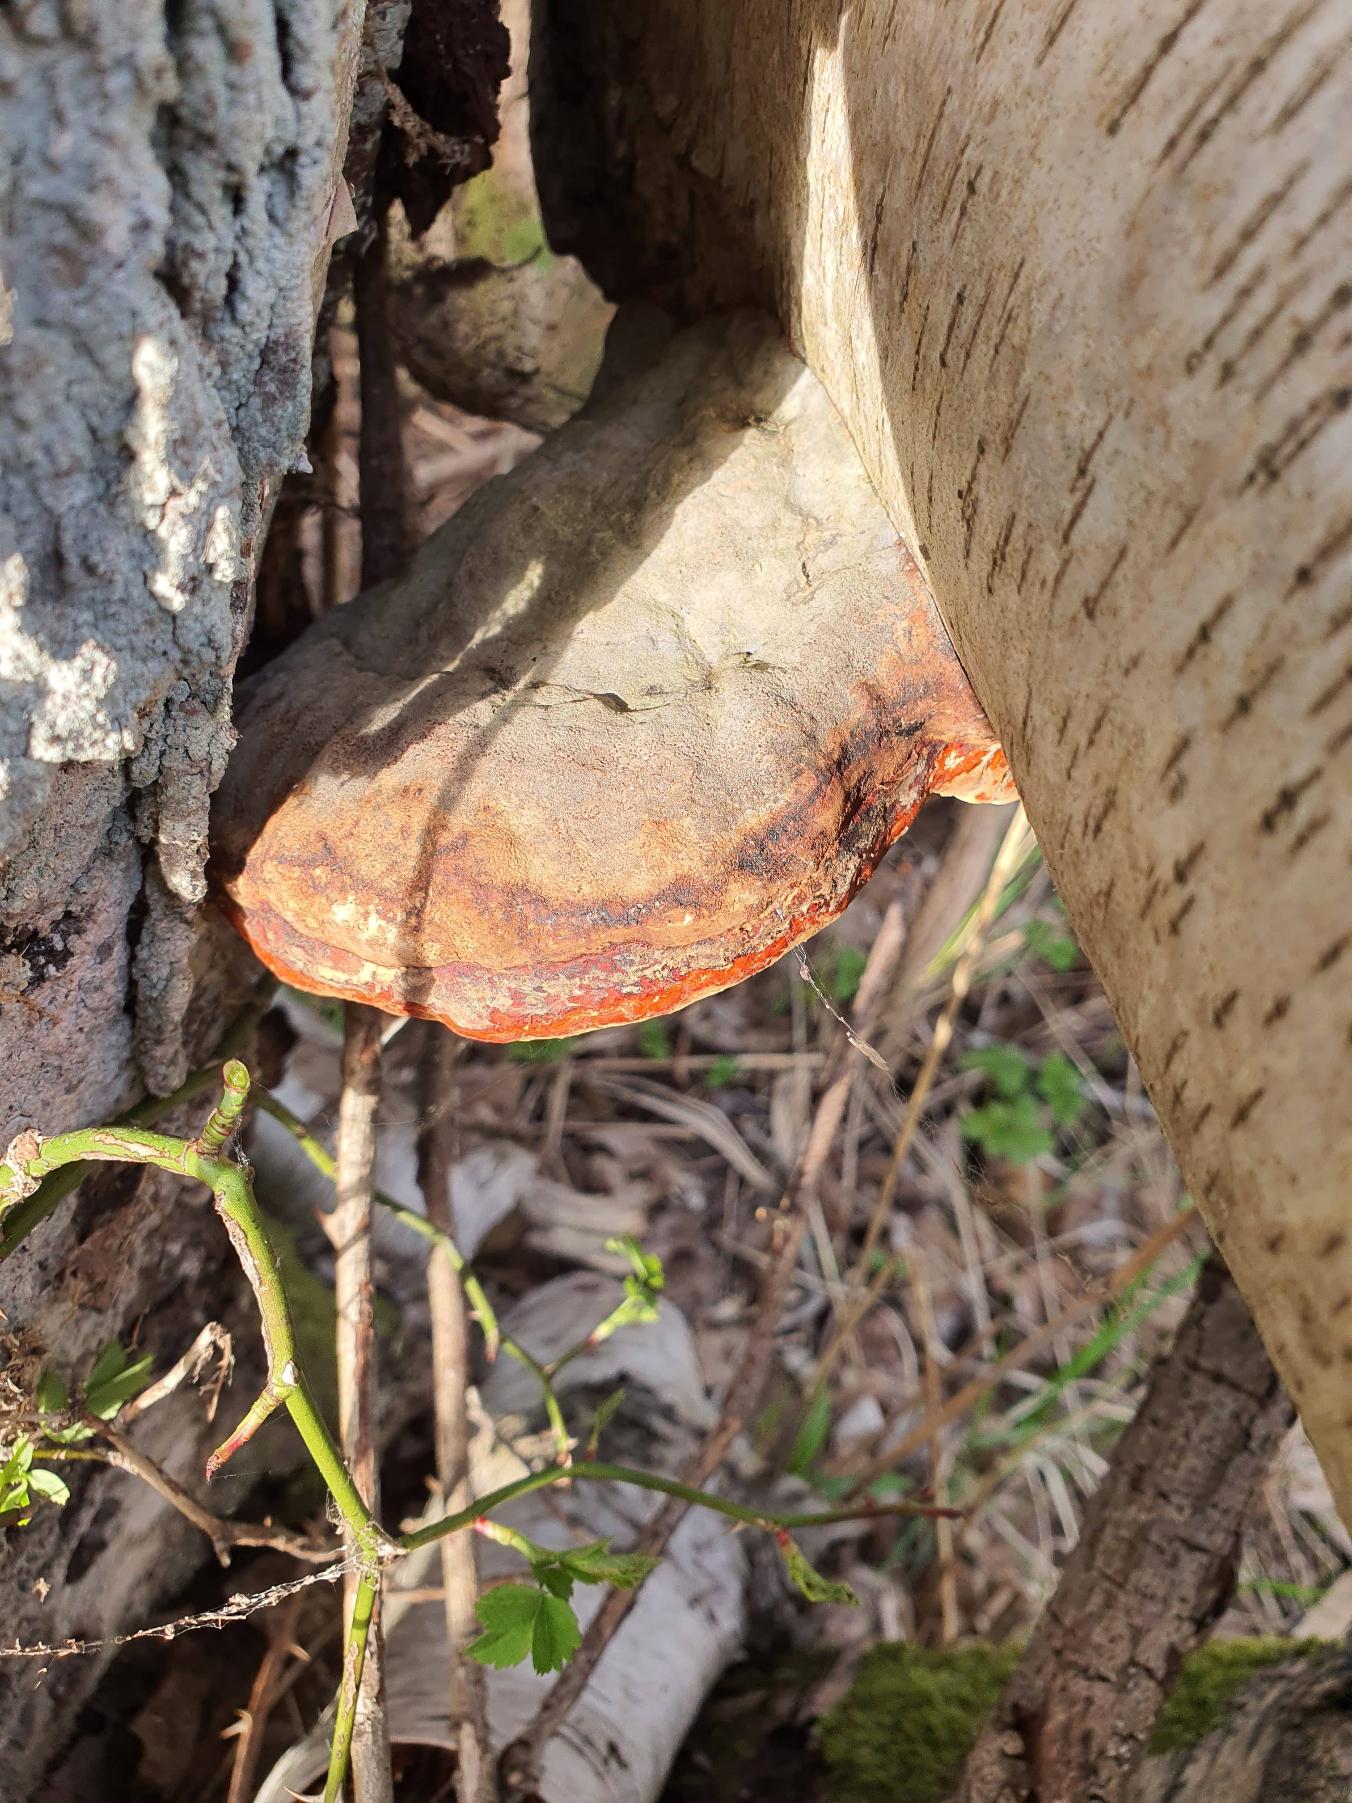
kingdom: Fungi
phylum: Basidiomycota
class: Agaricomycetes
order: Polyporales
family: Fomitopsidaceae
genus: Fomitopsis
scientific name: Fomitopsis pinicola
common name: Randbæltet hovporesvamp
